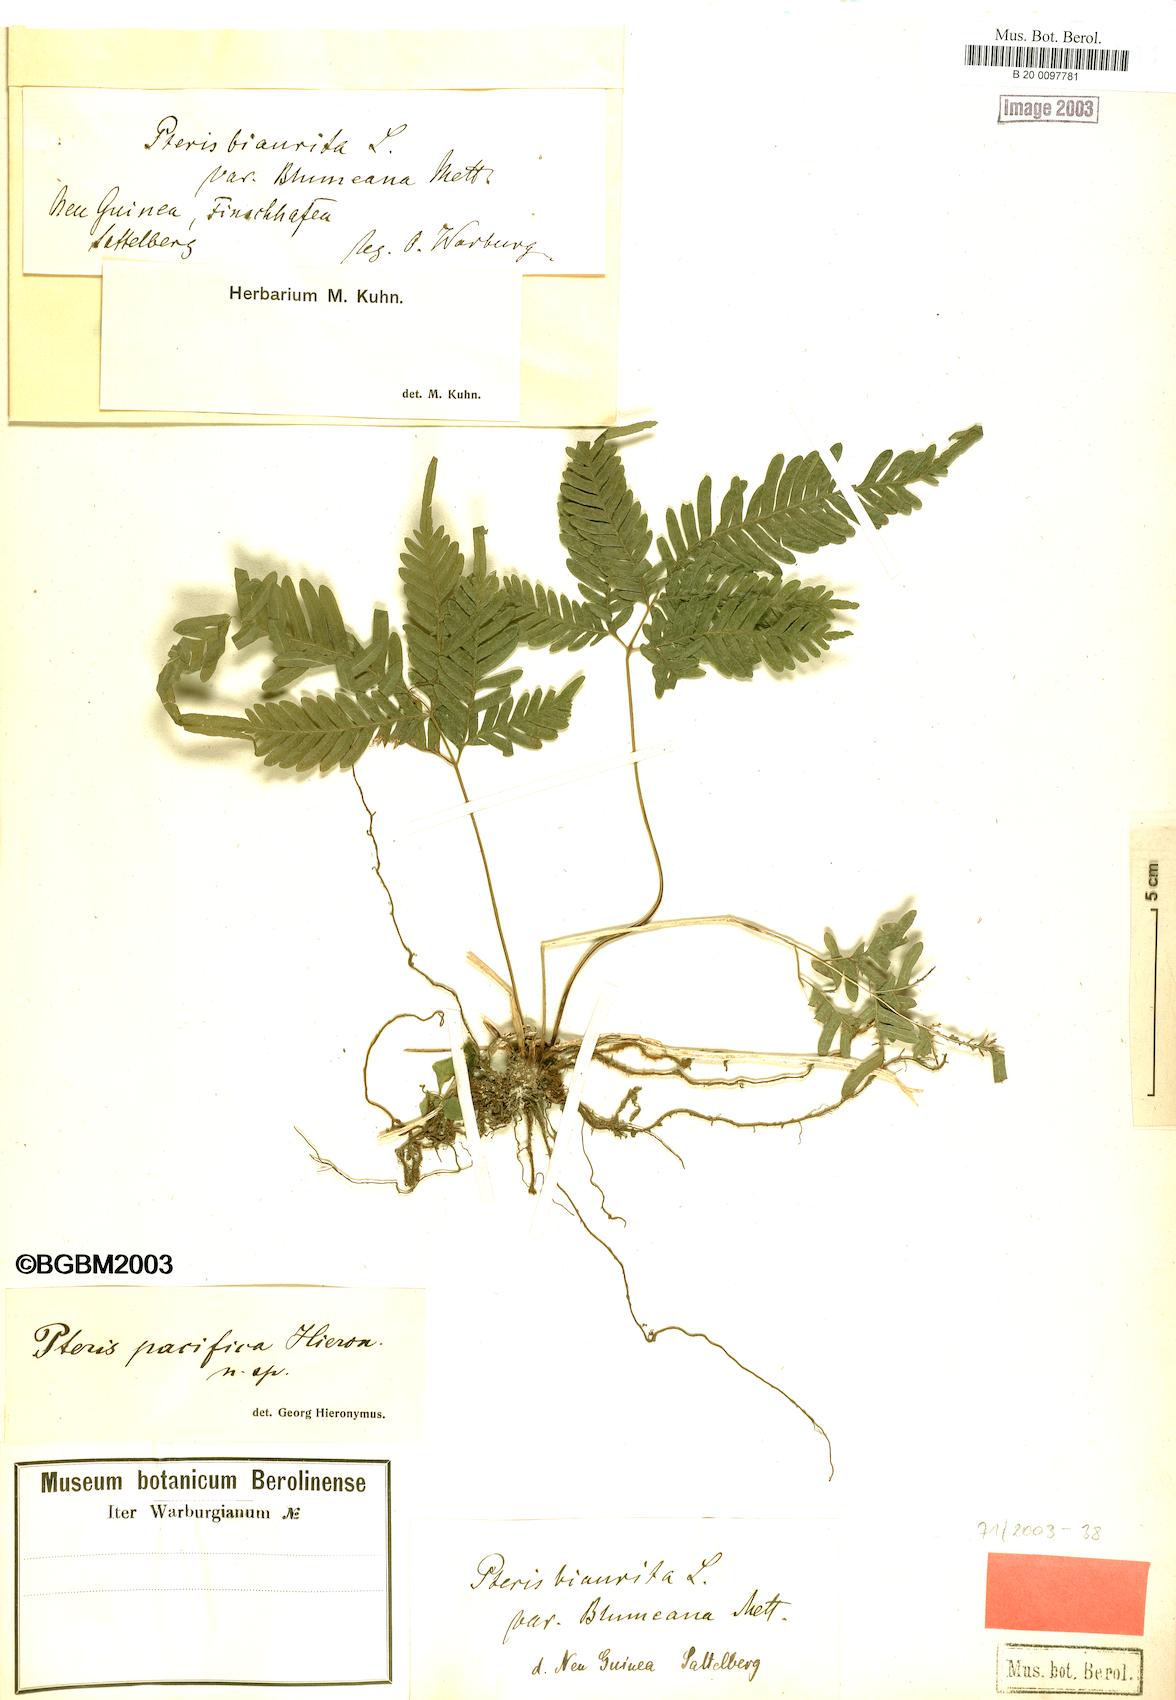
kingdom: Plantae
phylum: Tracheophyta
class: Polypodiopsida
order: Polypodiales
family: Pteridaceae
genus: Pteris
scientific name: Pteris biaurita
